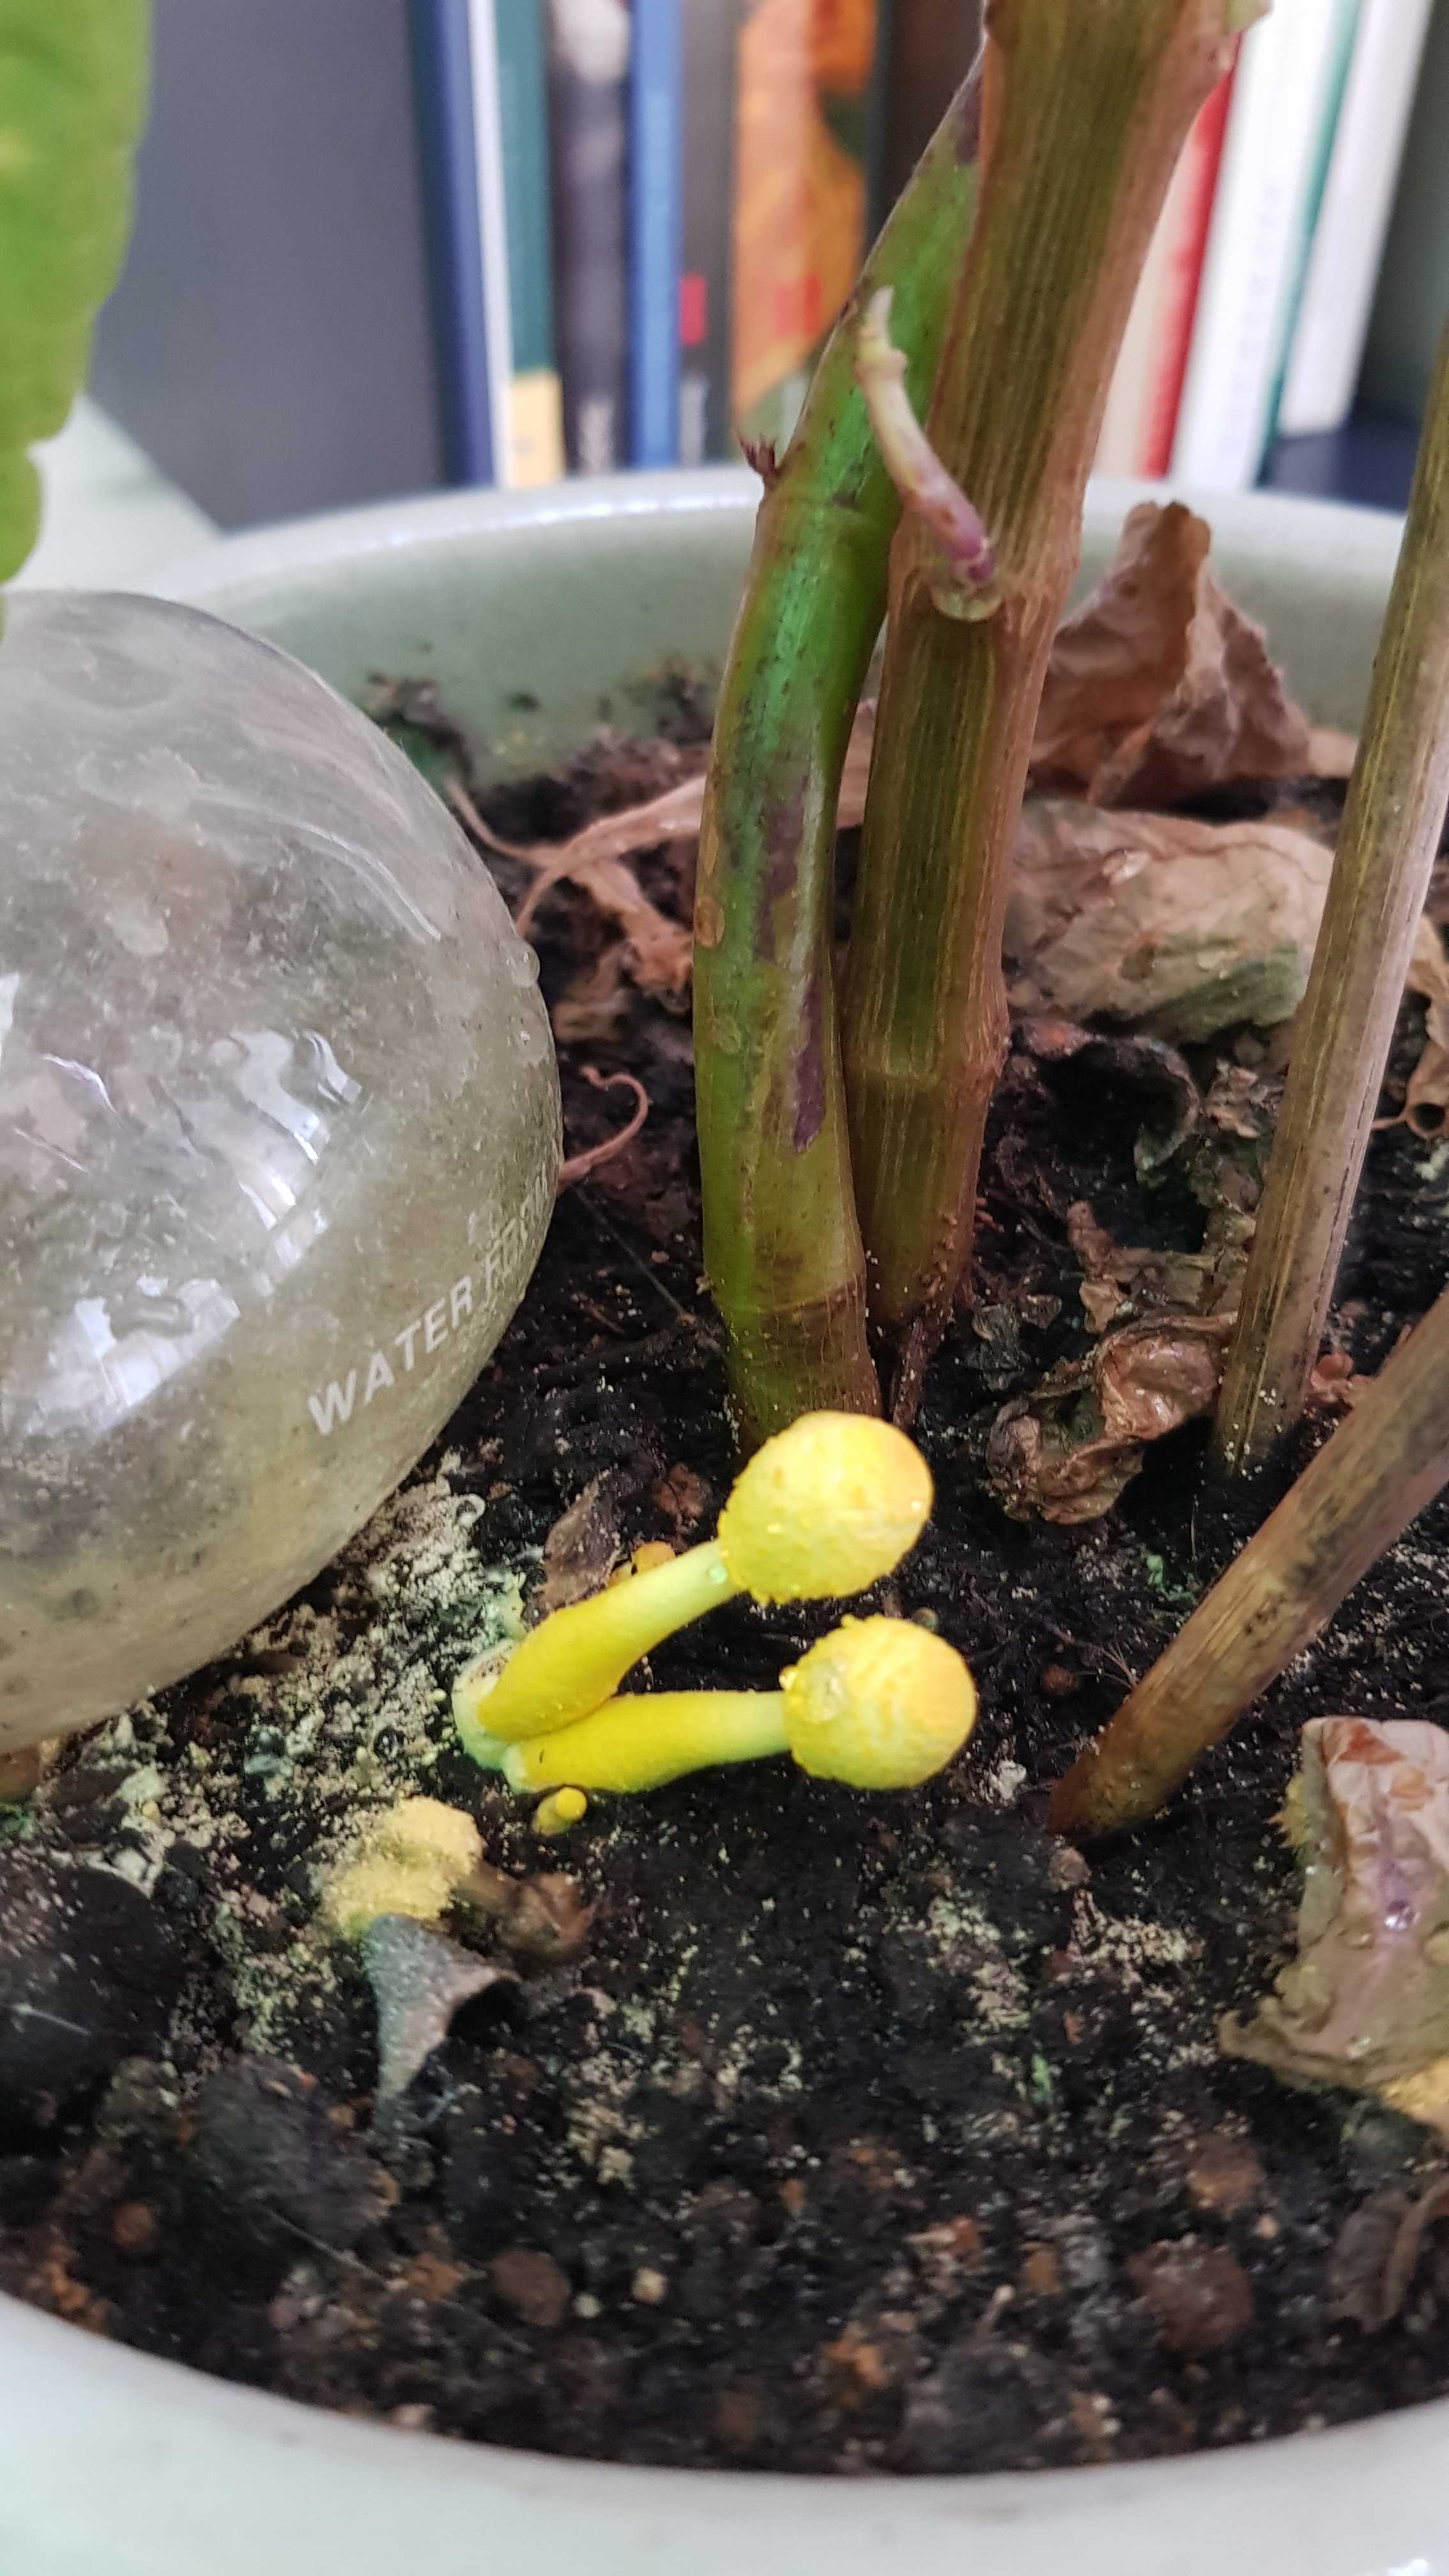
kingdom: Fungi
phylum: Basidiomycota
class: Agaricomycetes
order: Agaricales
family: Agaricaceae
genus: Leucocoprinus
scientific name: Leucocoprinus birnbaumii
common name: gul silkehat
